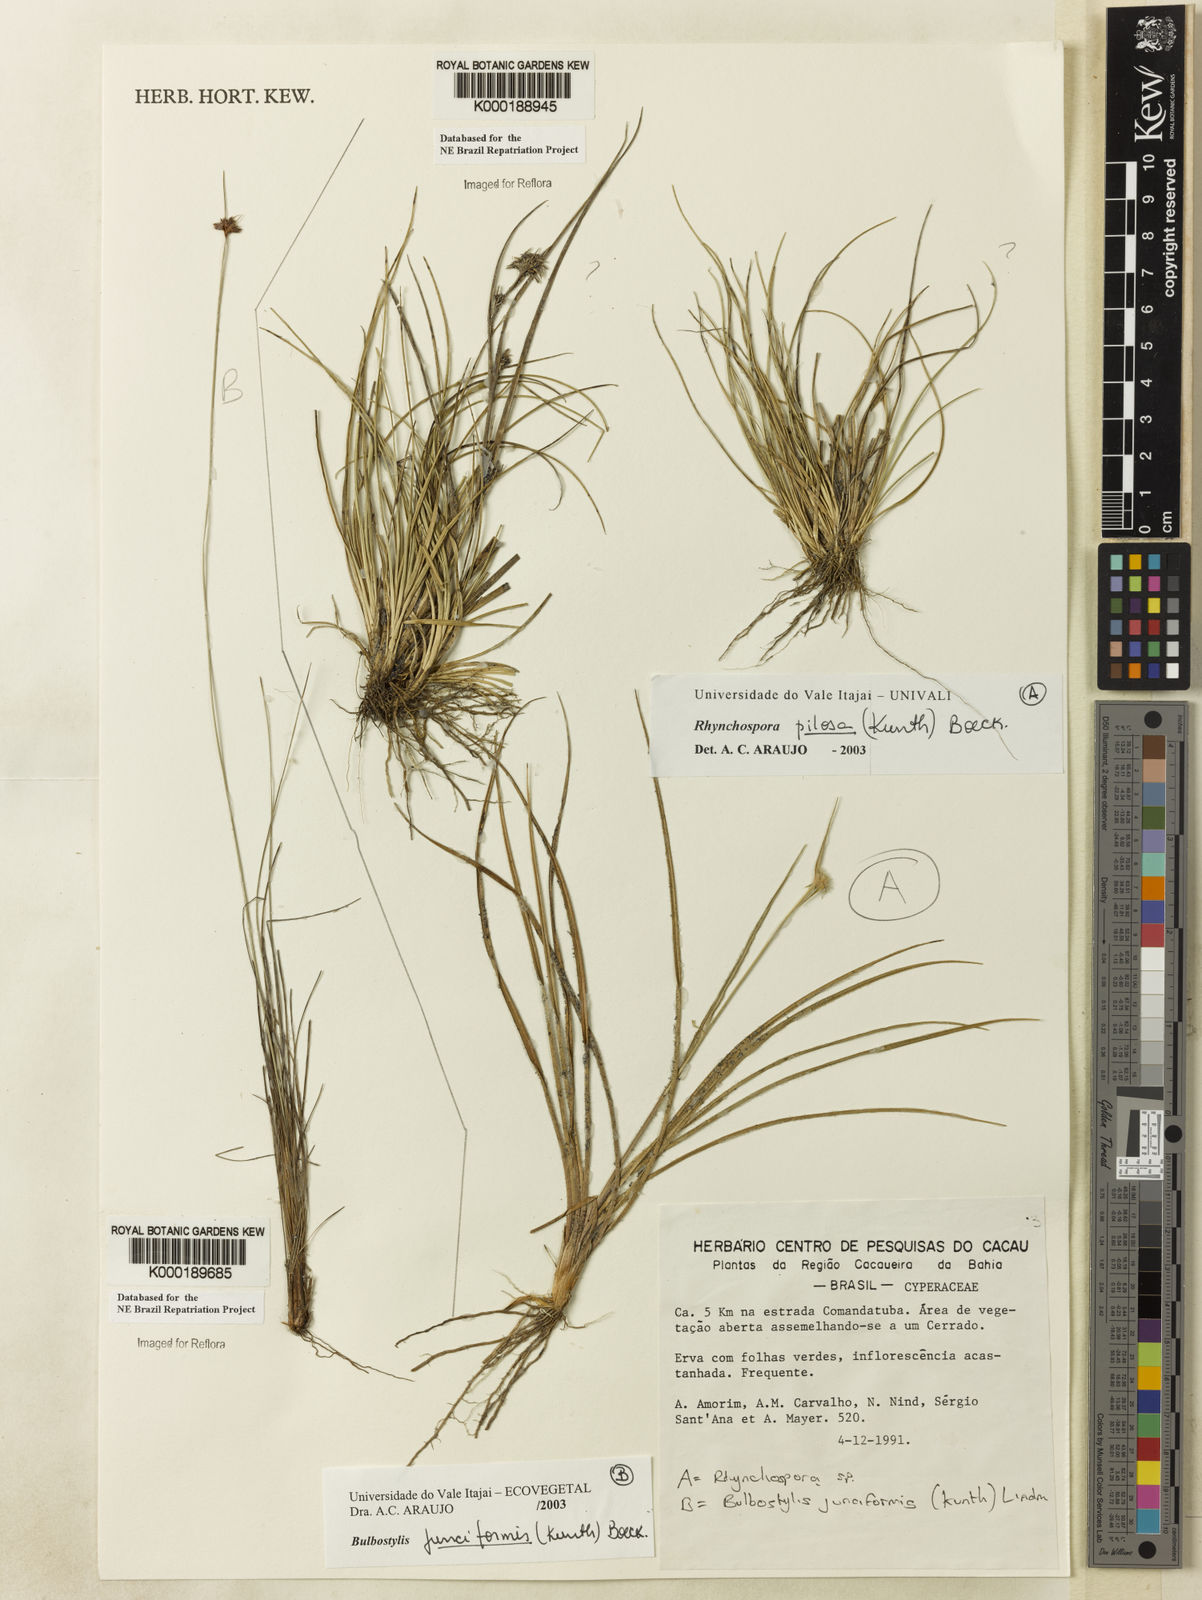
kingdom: Plantae
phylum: Tracheophyta
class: Liliopsida
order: Poales
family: Cyperaceae
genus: Rhynchospora
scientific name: Rhynchospora pilosa
